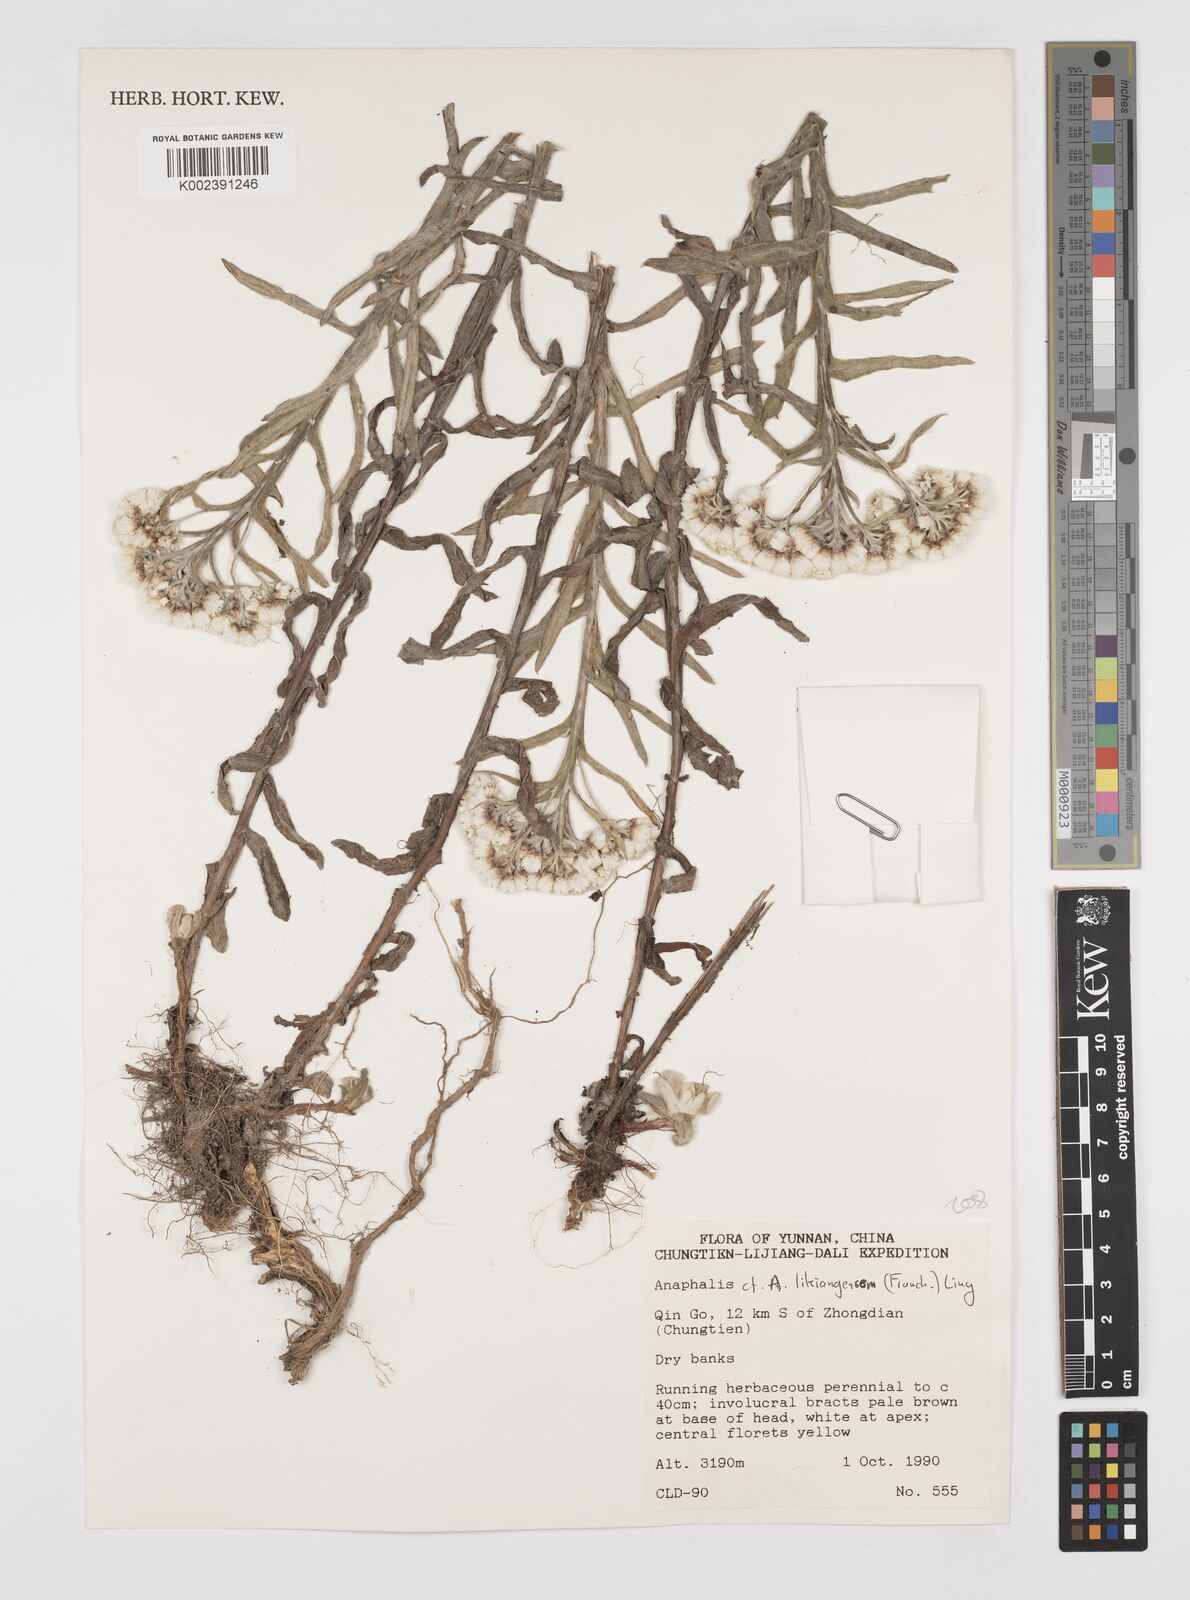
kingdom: Plantae
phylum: Tracheophyta
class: Magnoliopsida
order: Asterales
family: Asteraceae
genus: Anaphalis
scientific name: Anaphalis likiangensis
